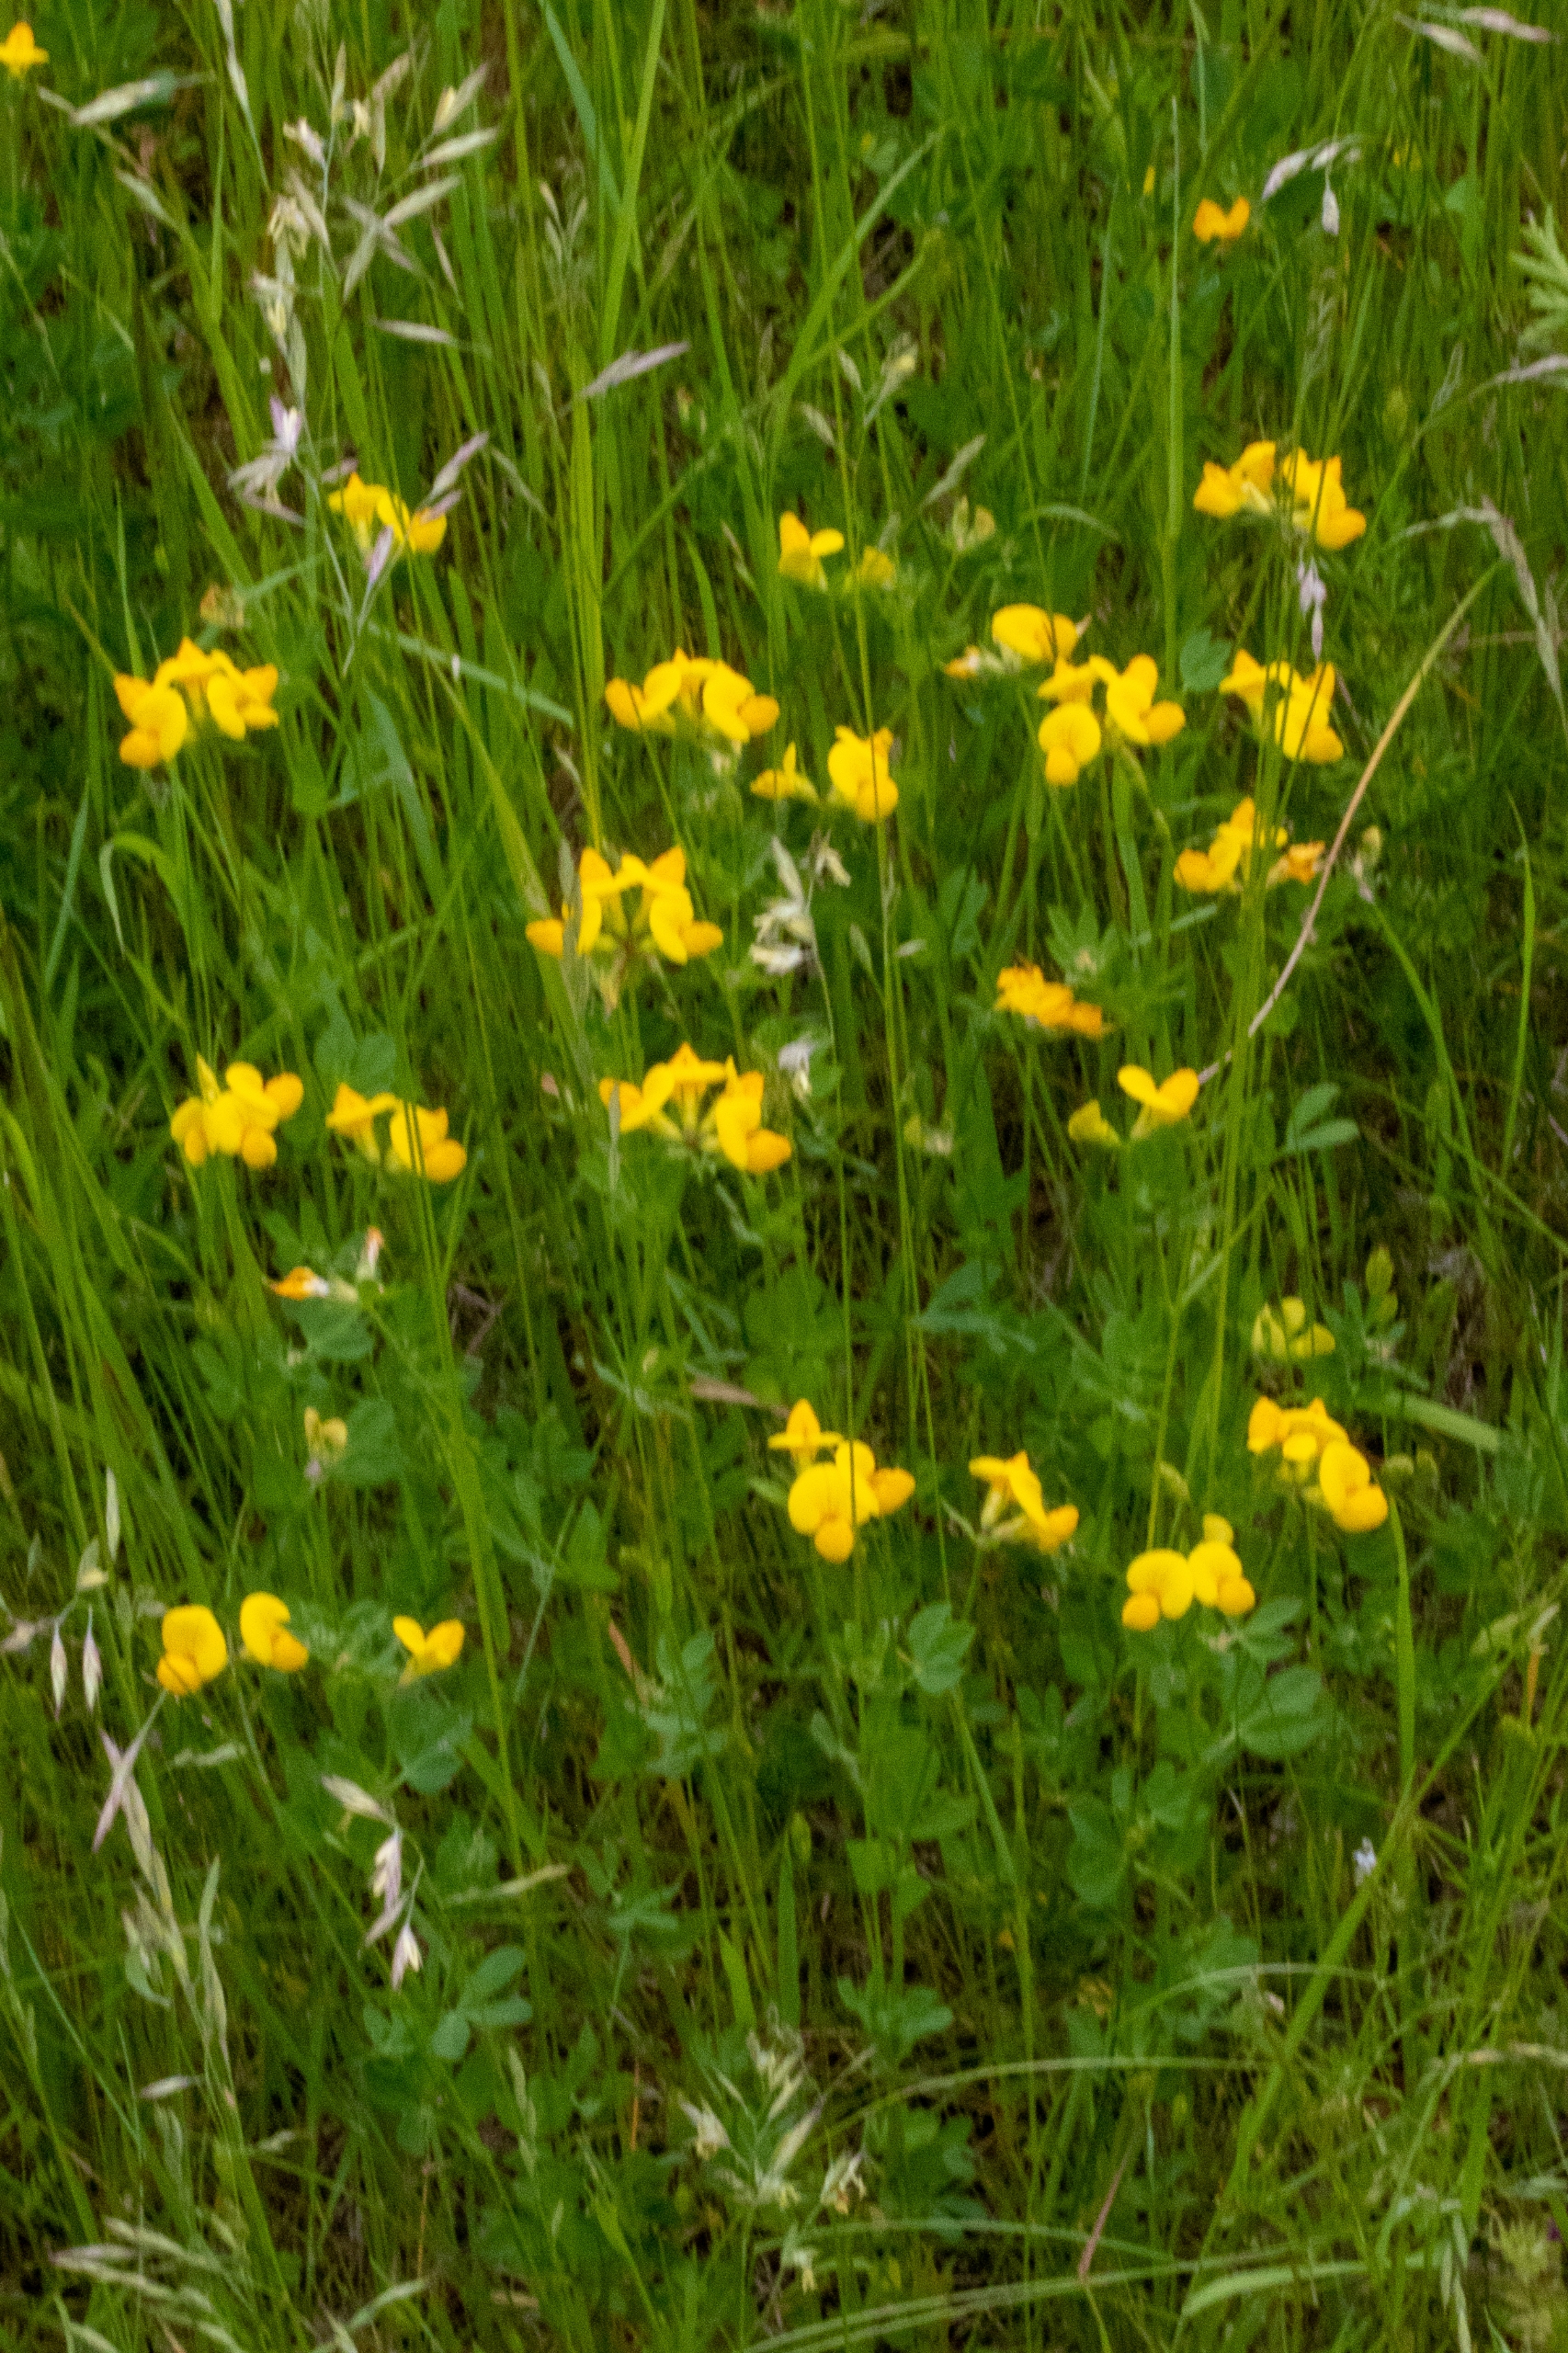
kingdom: Plantae
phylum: Tracheophyta
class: Magnoliopsida
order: Fabales
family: Fabaceae
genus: Lotus
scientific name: Lotus corniculatus
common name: Almindelig kællingetand
